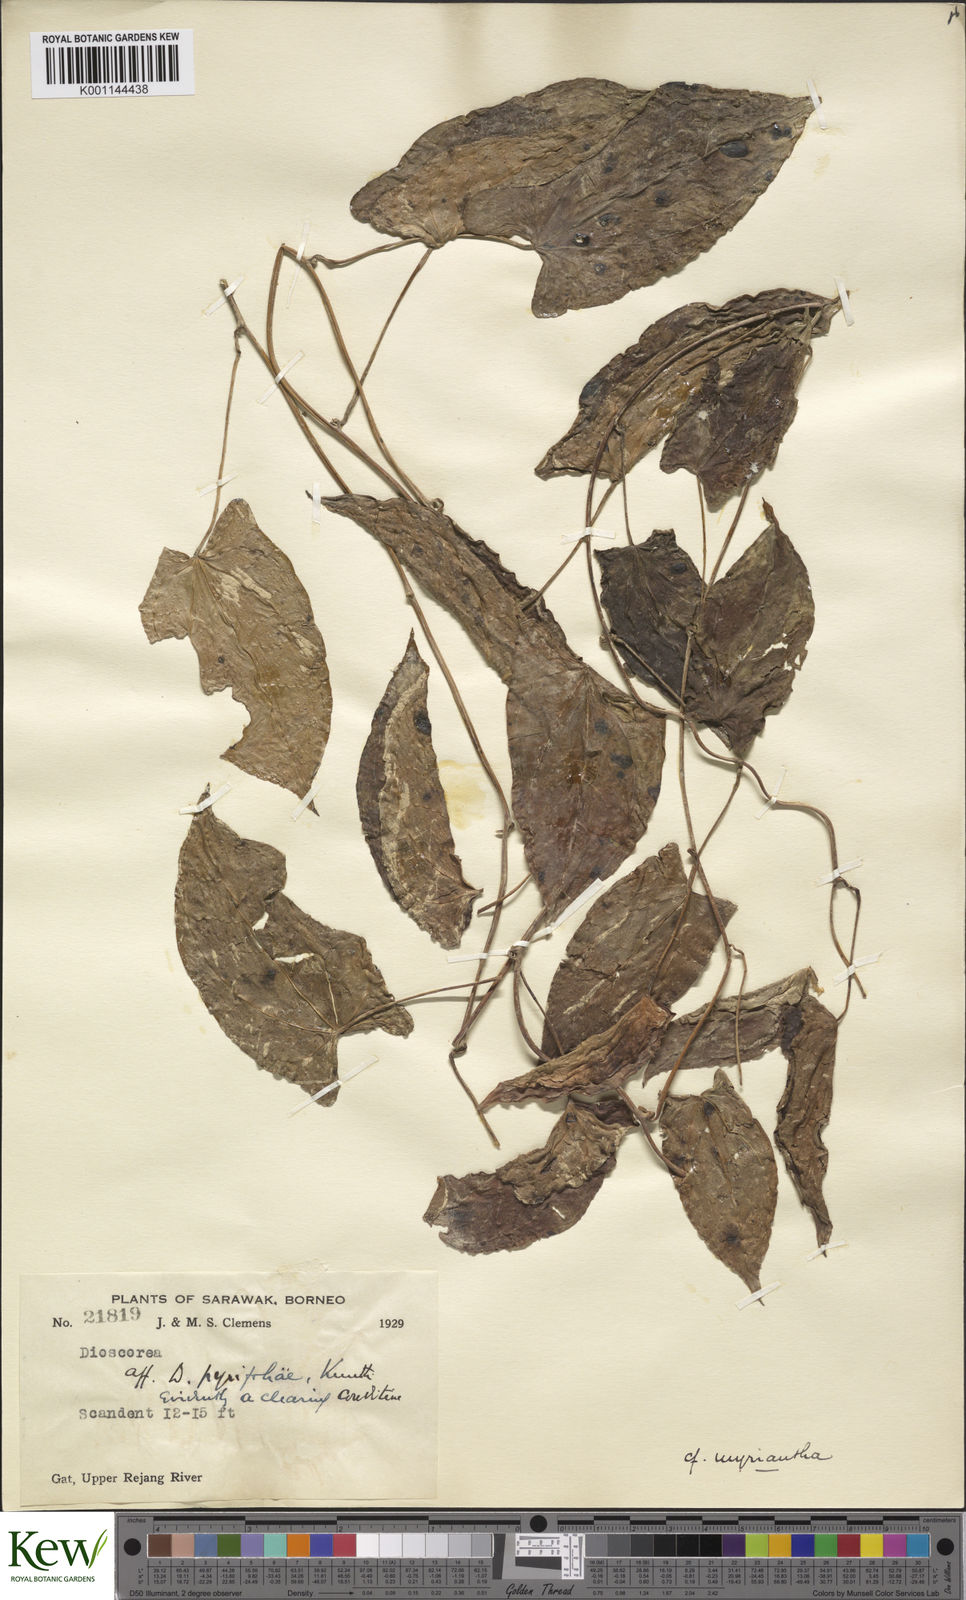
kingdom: Plantae
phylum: Tracheophyta
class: Liliopsida
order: Dioscoreales
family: Dioscoreaceae
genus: Dioscorea
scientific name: Dioscorea filiformis
